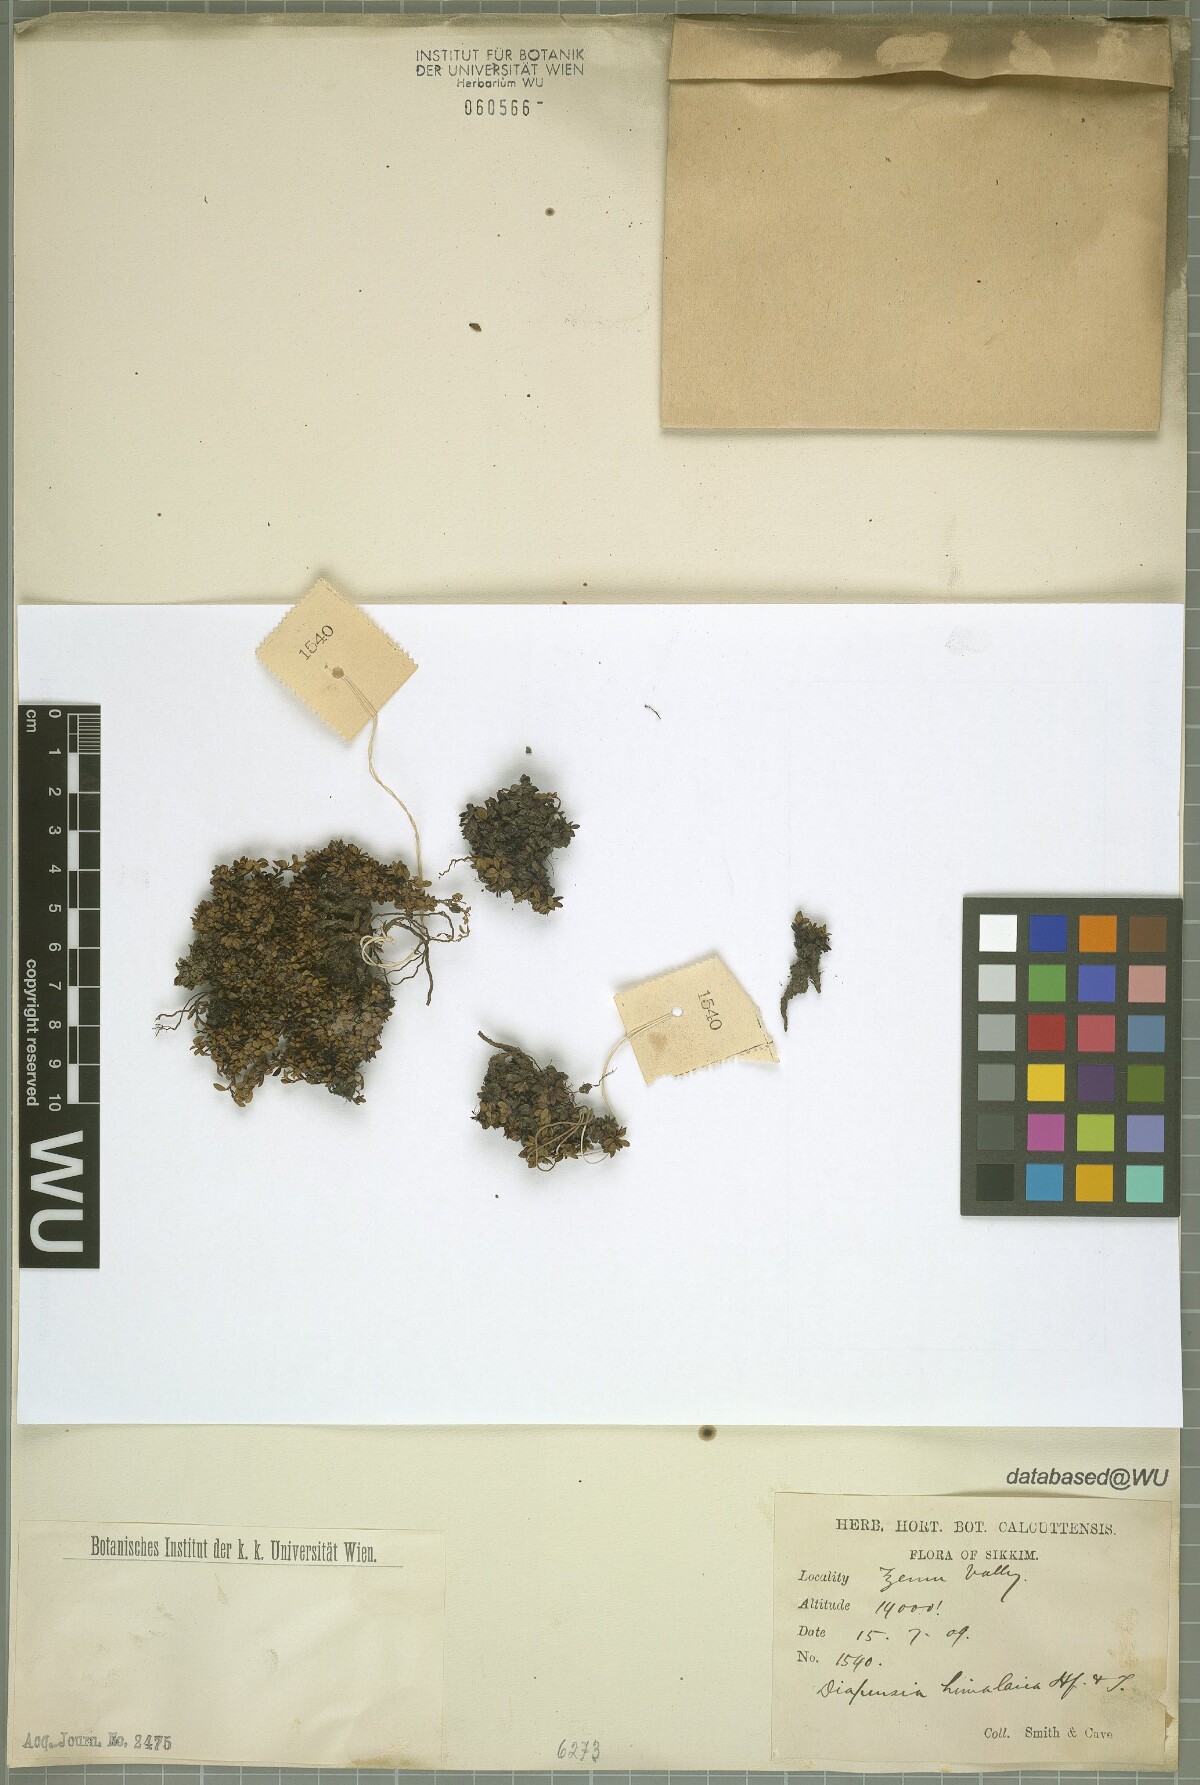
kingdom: Plantae
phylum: Tracheophyta
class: Magnoliopsida
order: Ericales
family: Diapensiaceae
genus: Diapensia
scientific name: Diapensia himalaica
